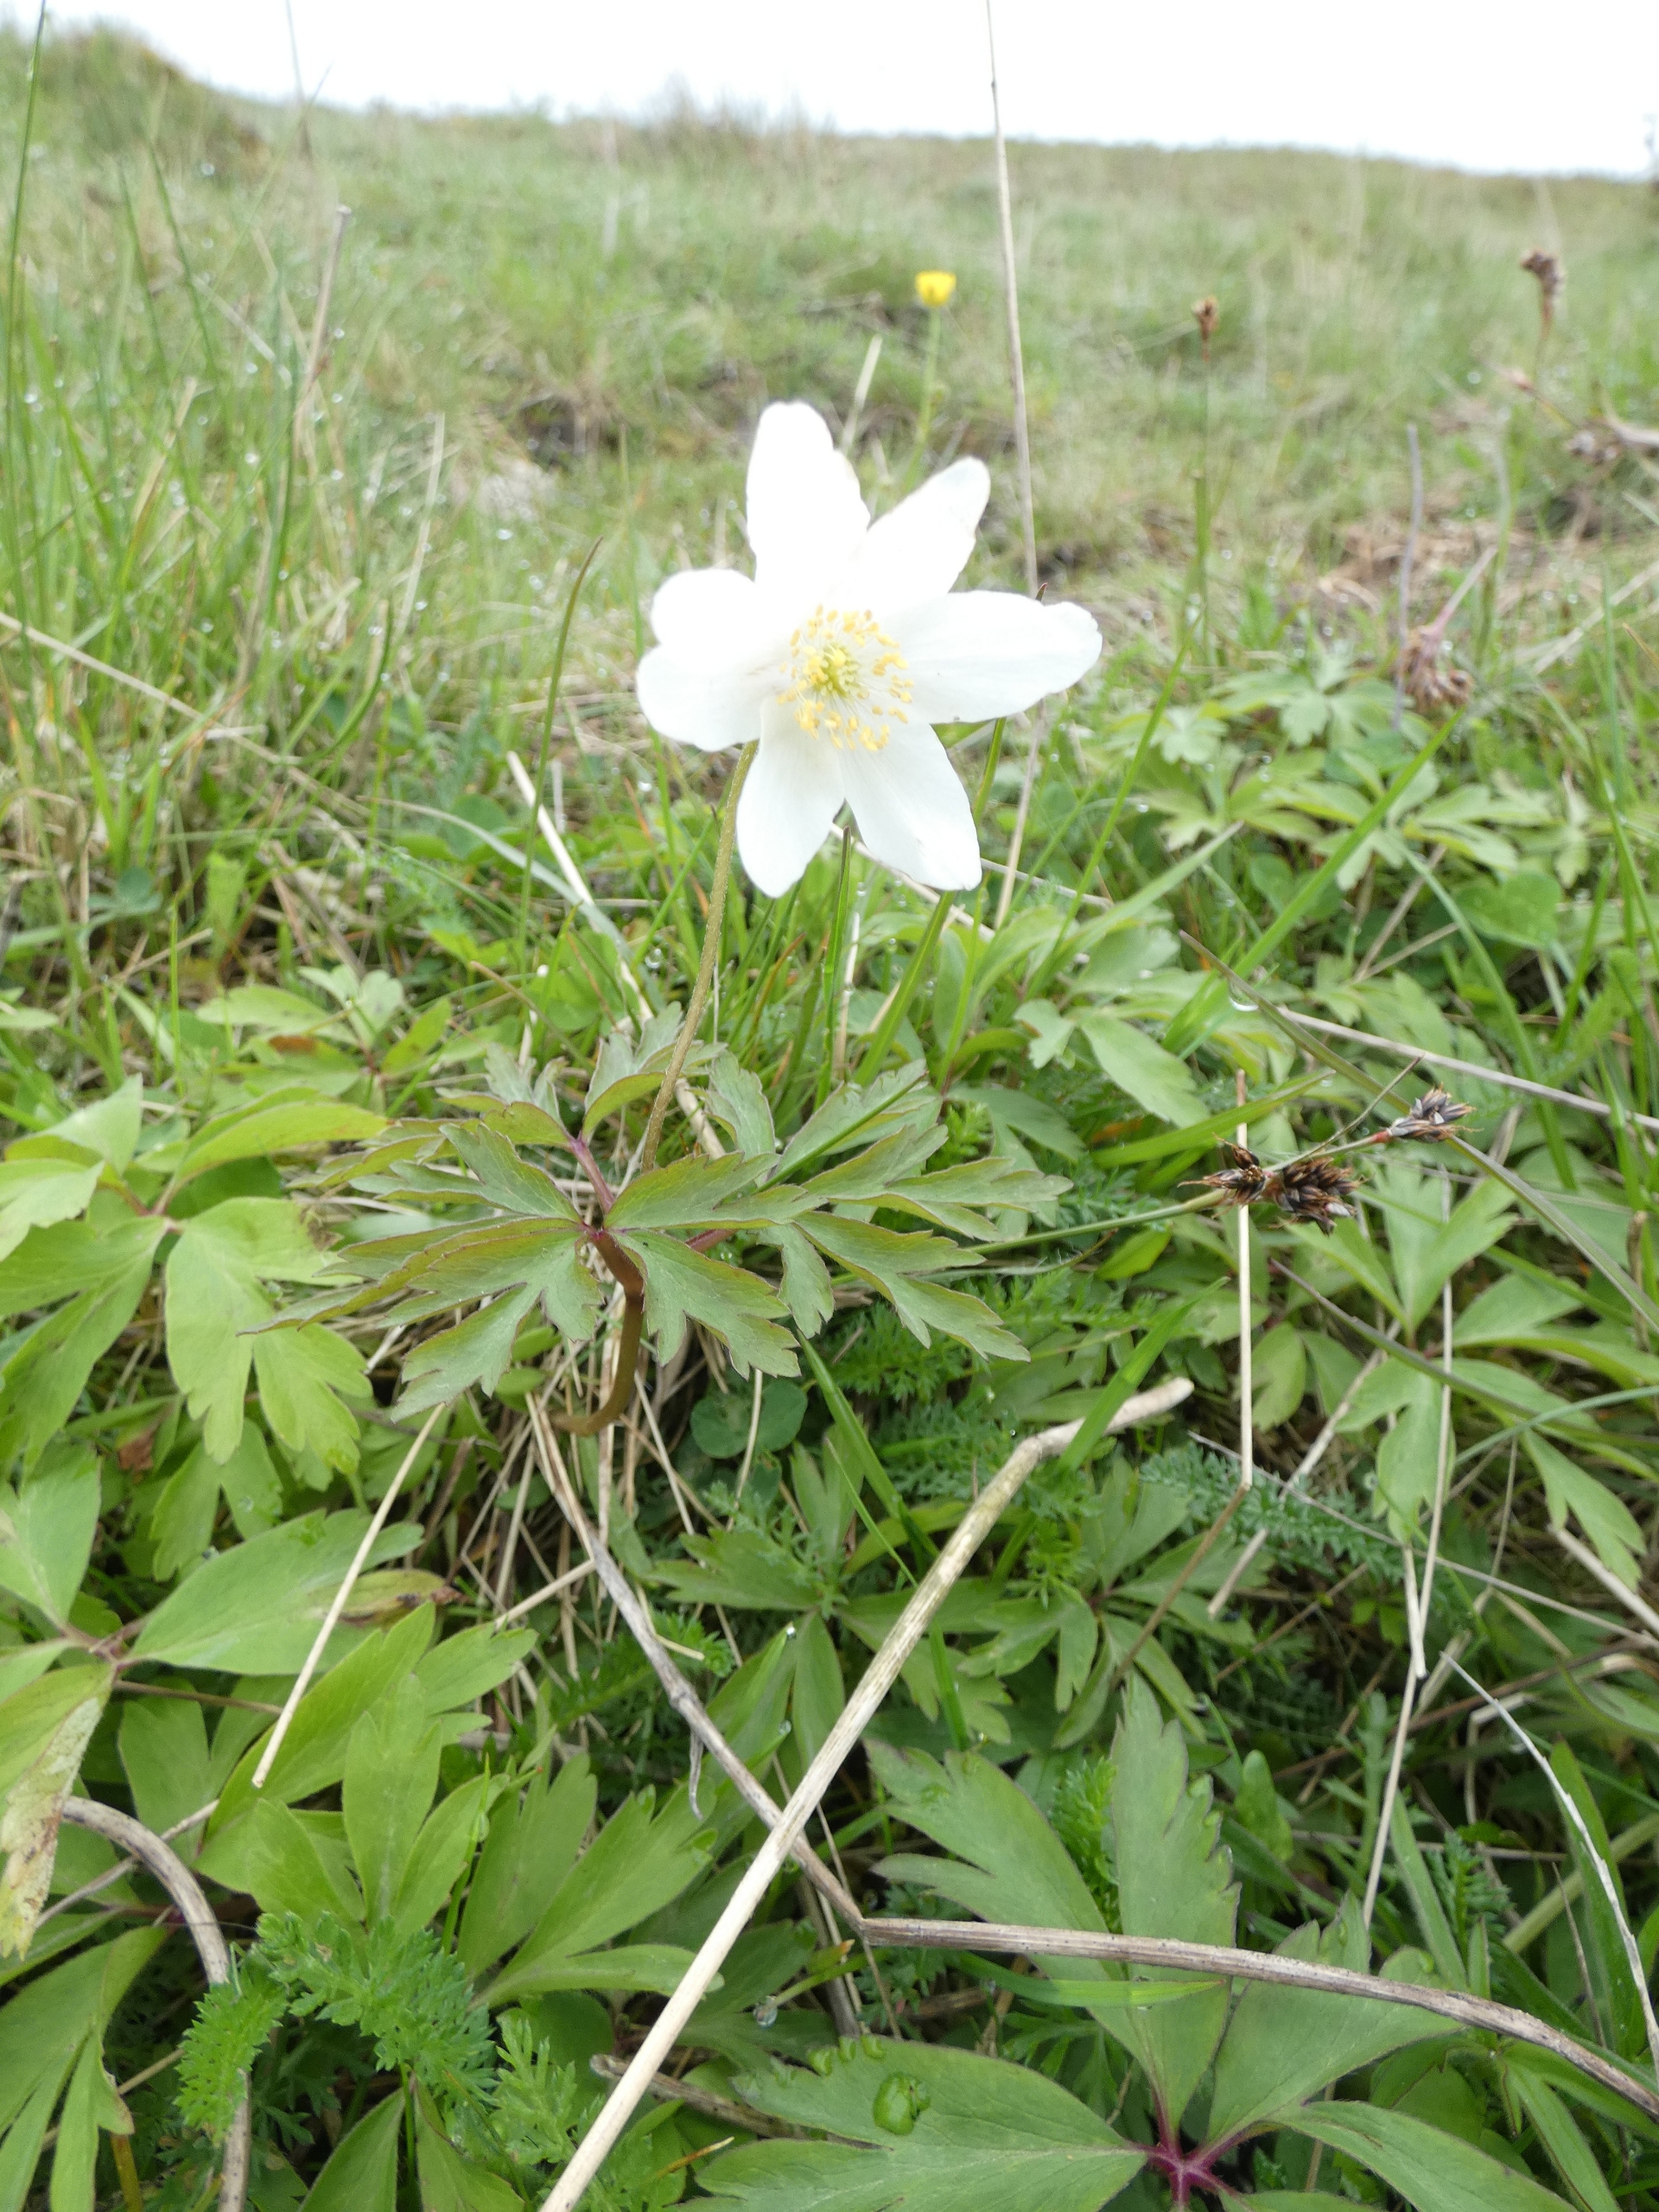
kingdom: Plantae
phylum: Tracheophyta
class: Magnoliopsida
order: Ranunculales
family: Ranunculaceae
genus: Anemone
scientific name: Anemone nemorosa
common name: Hvid anemone
